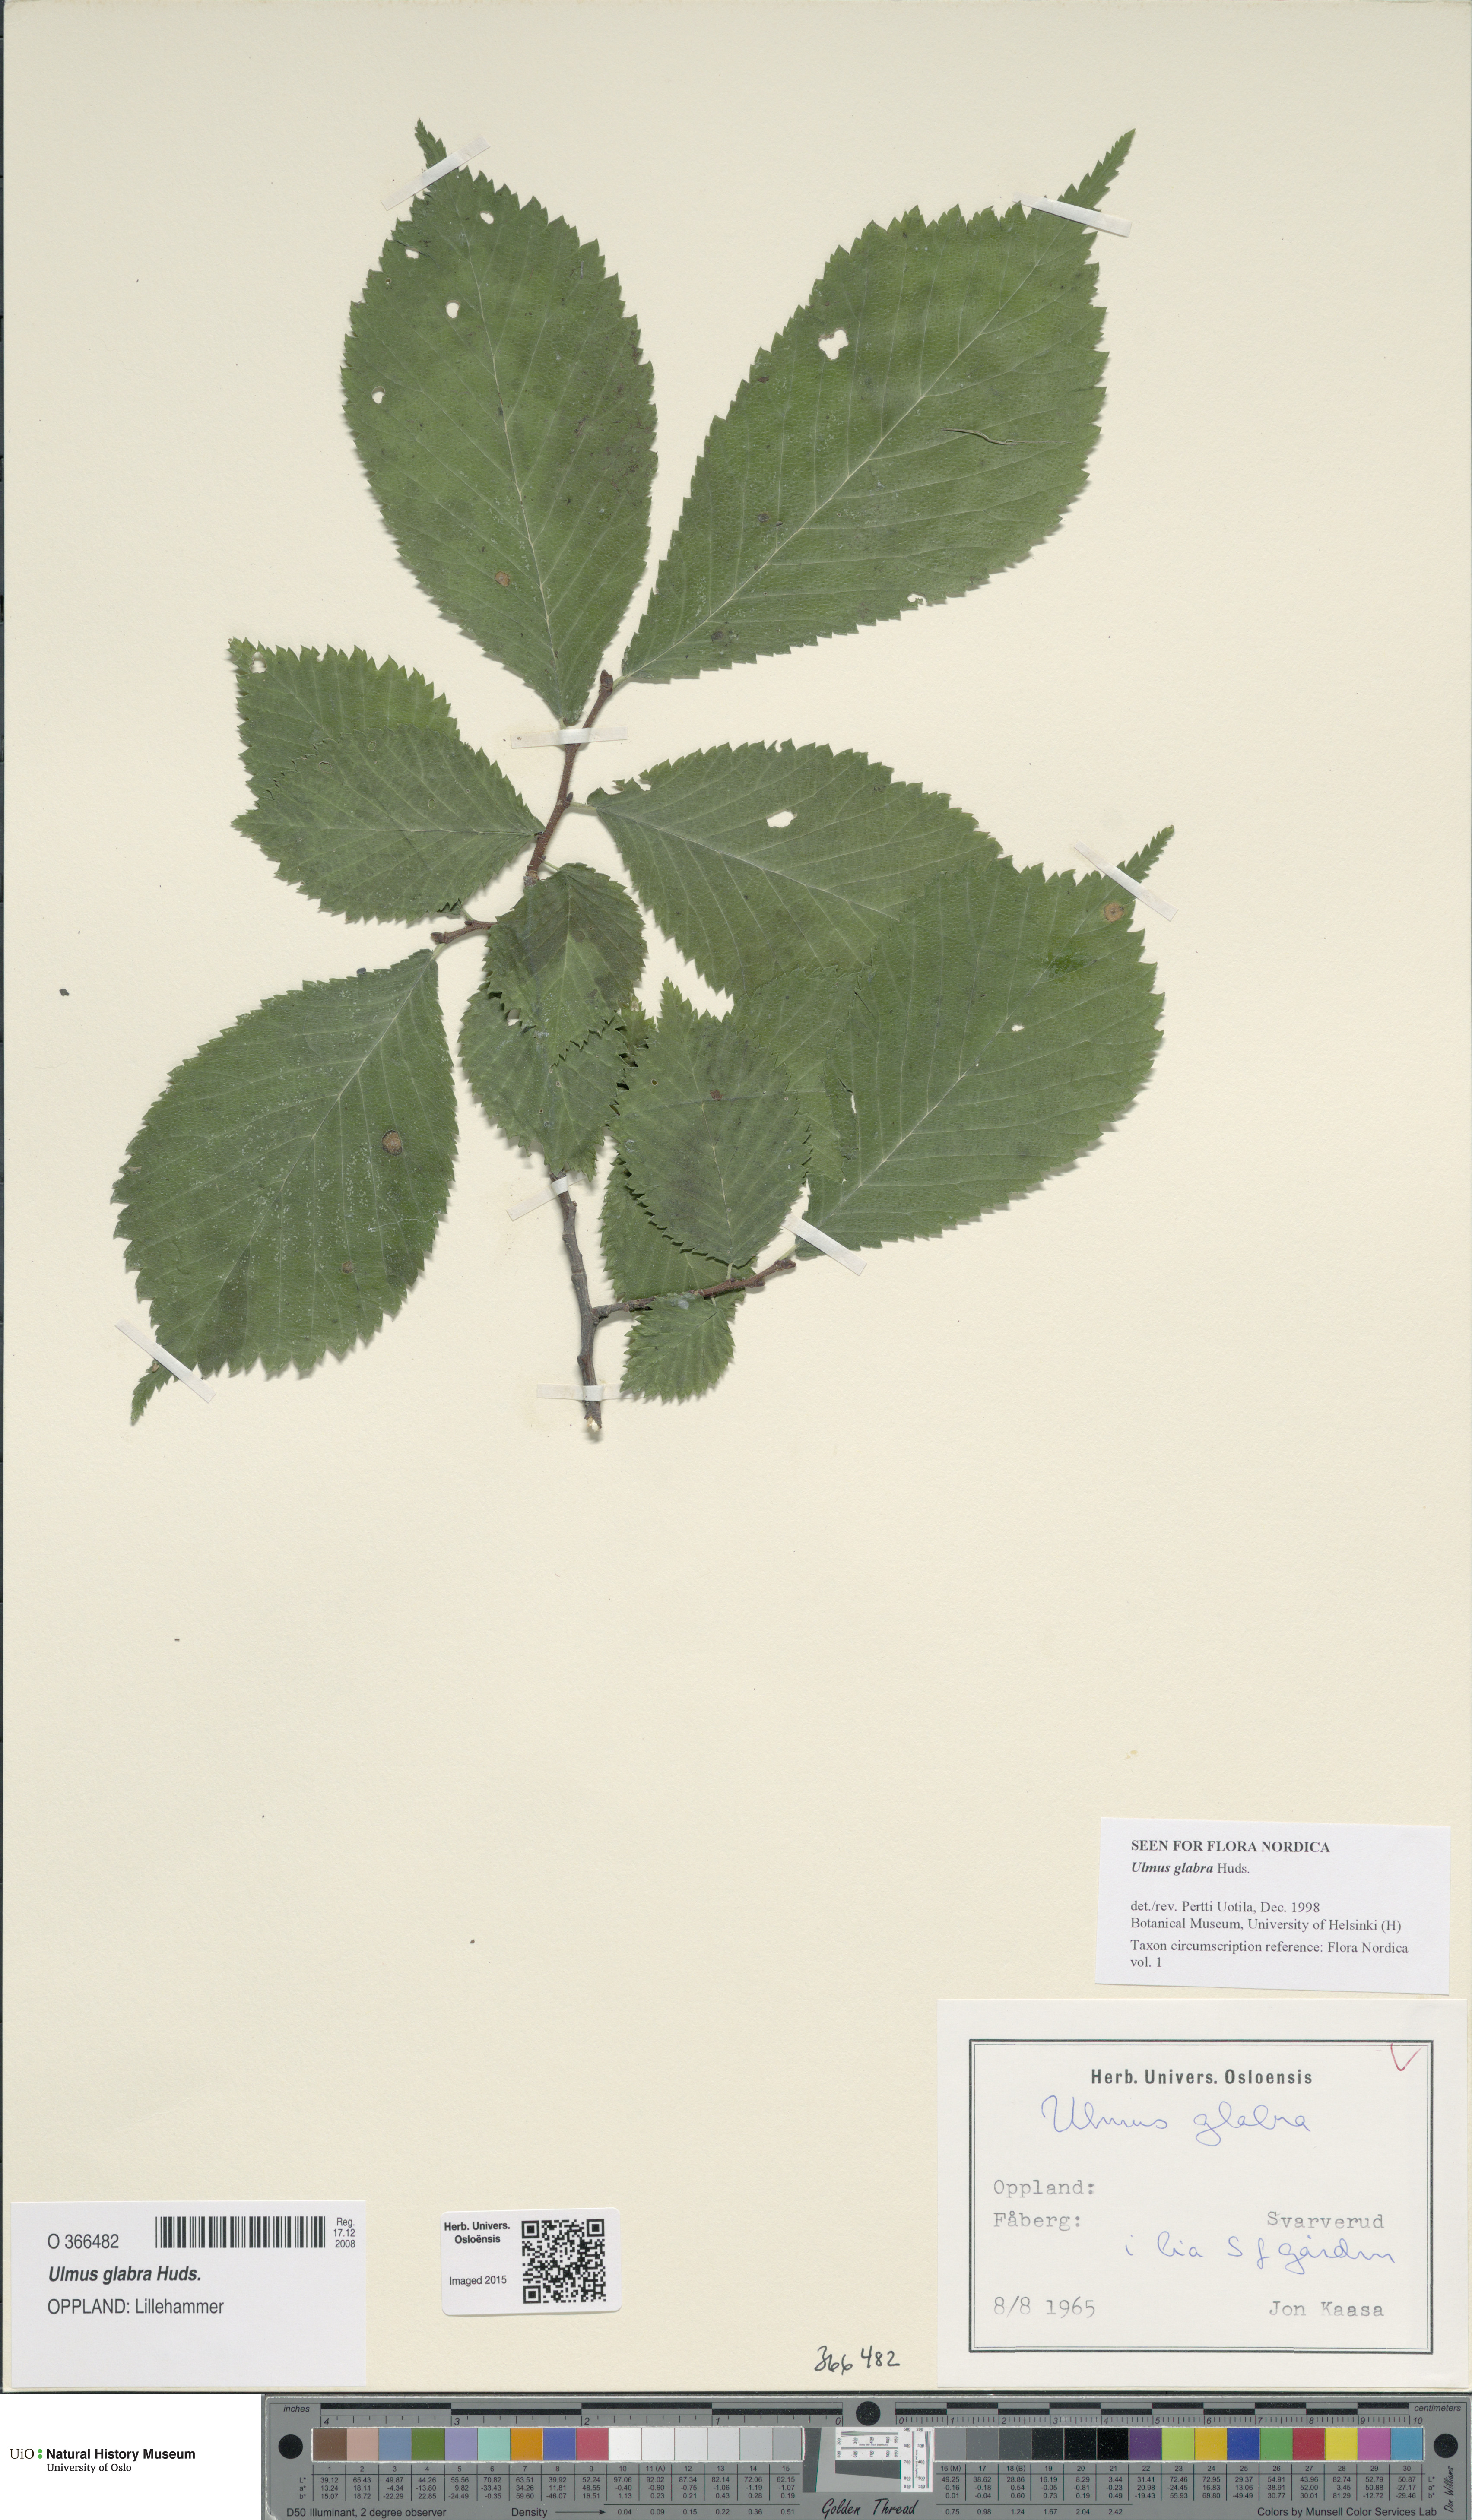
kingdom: Plantae
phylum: Tracheophyta
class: Magnoliopsida
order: Rosales
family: Ulmaceae
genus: Ulmus
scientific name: Ulmus glabra
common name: Wych elm
